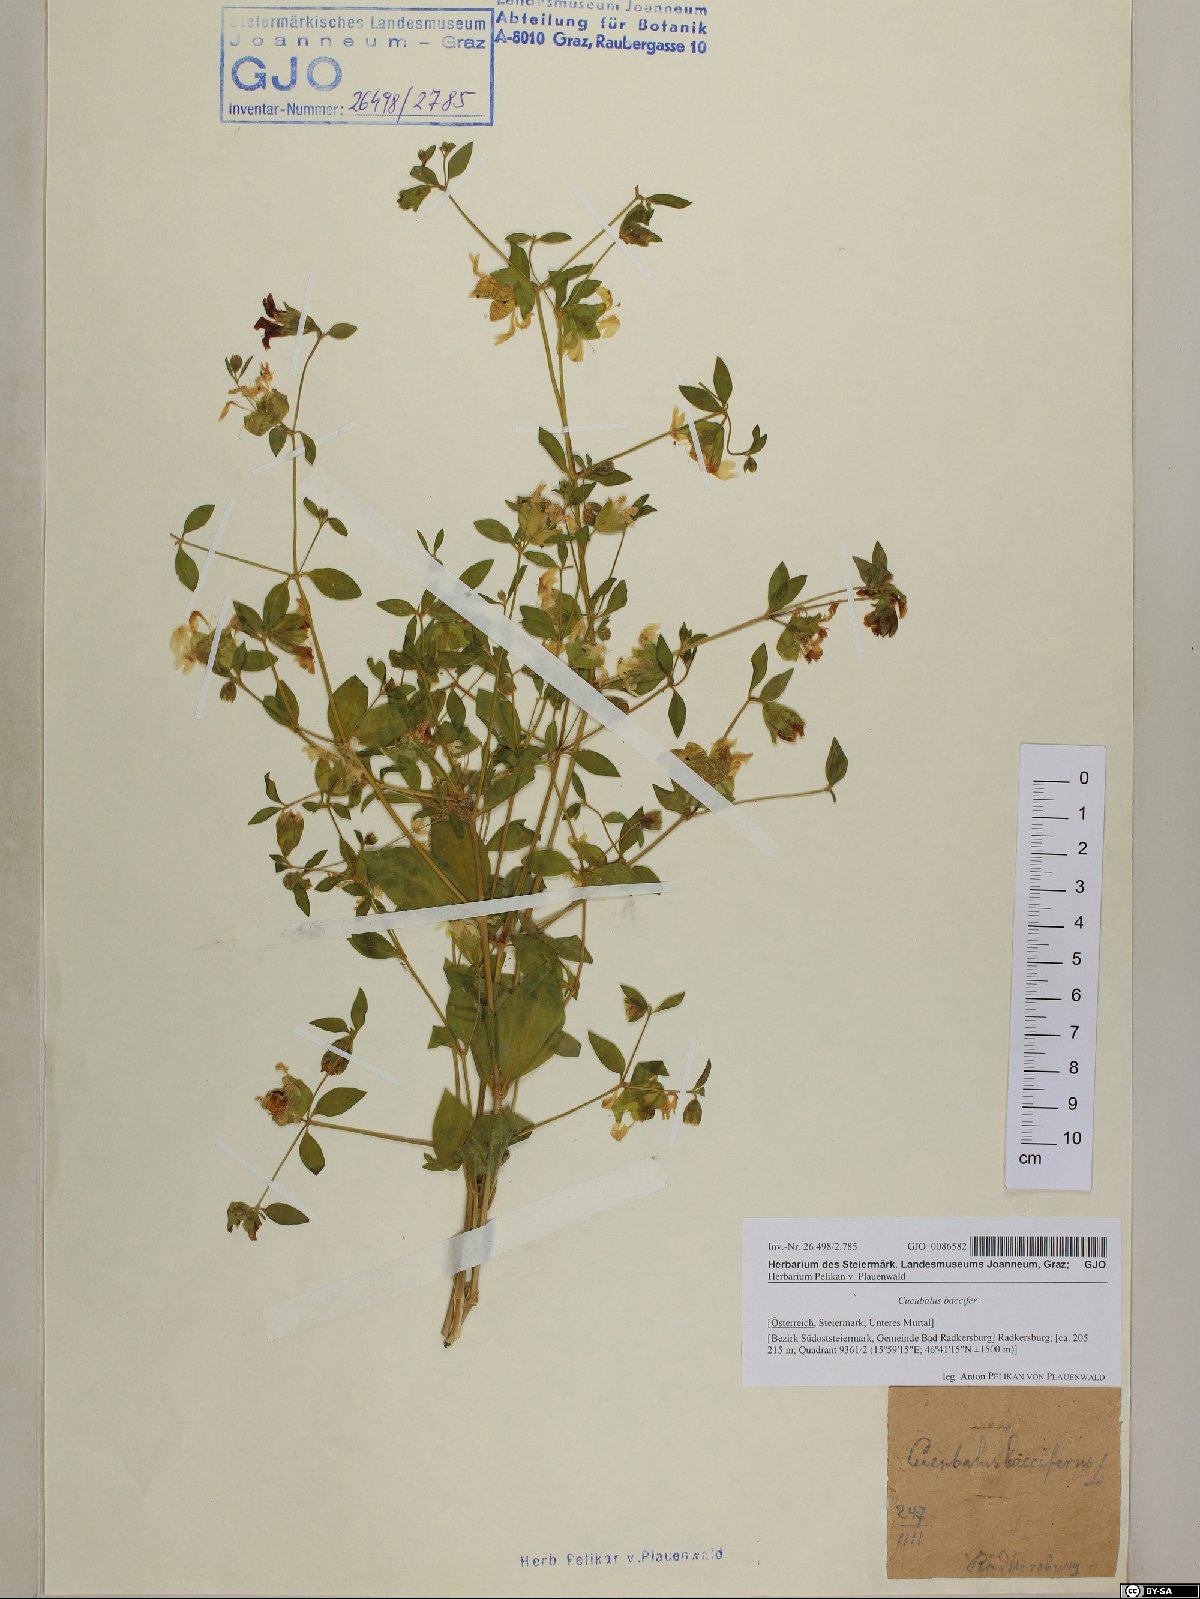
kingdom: Plantae
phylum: Tracheophyta
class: Magnoliopsida
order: Caryophyllales
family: Caryophyllaceae
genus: Silene
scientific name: Silene baccifera
